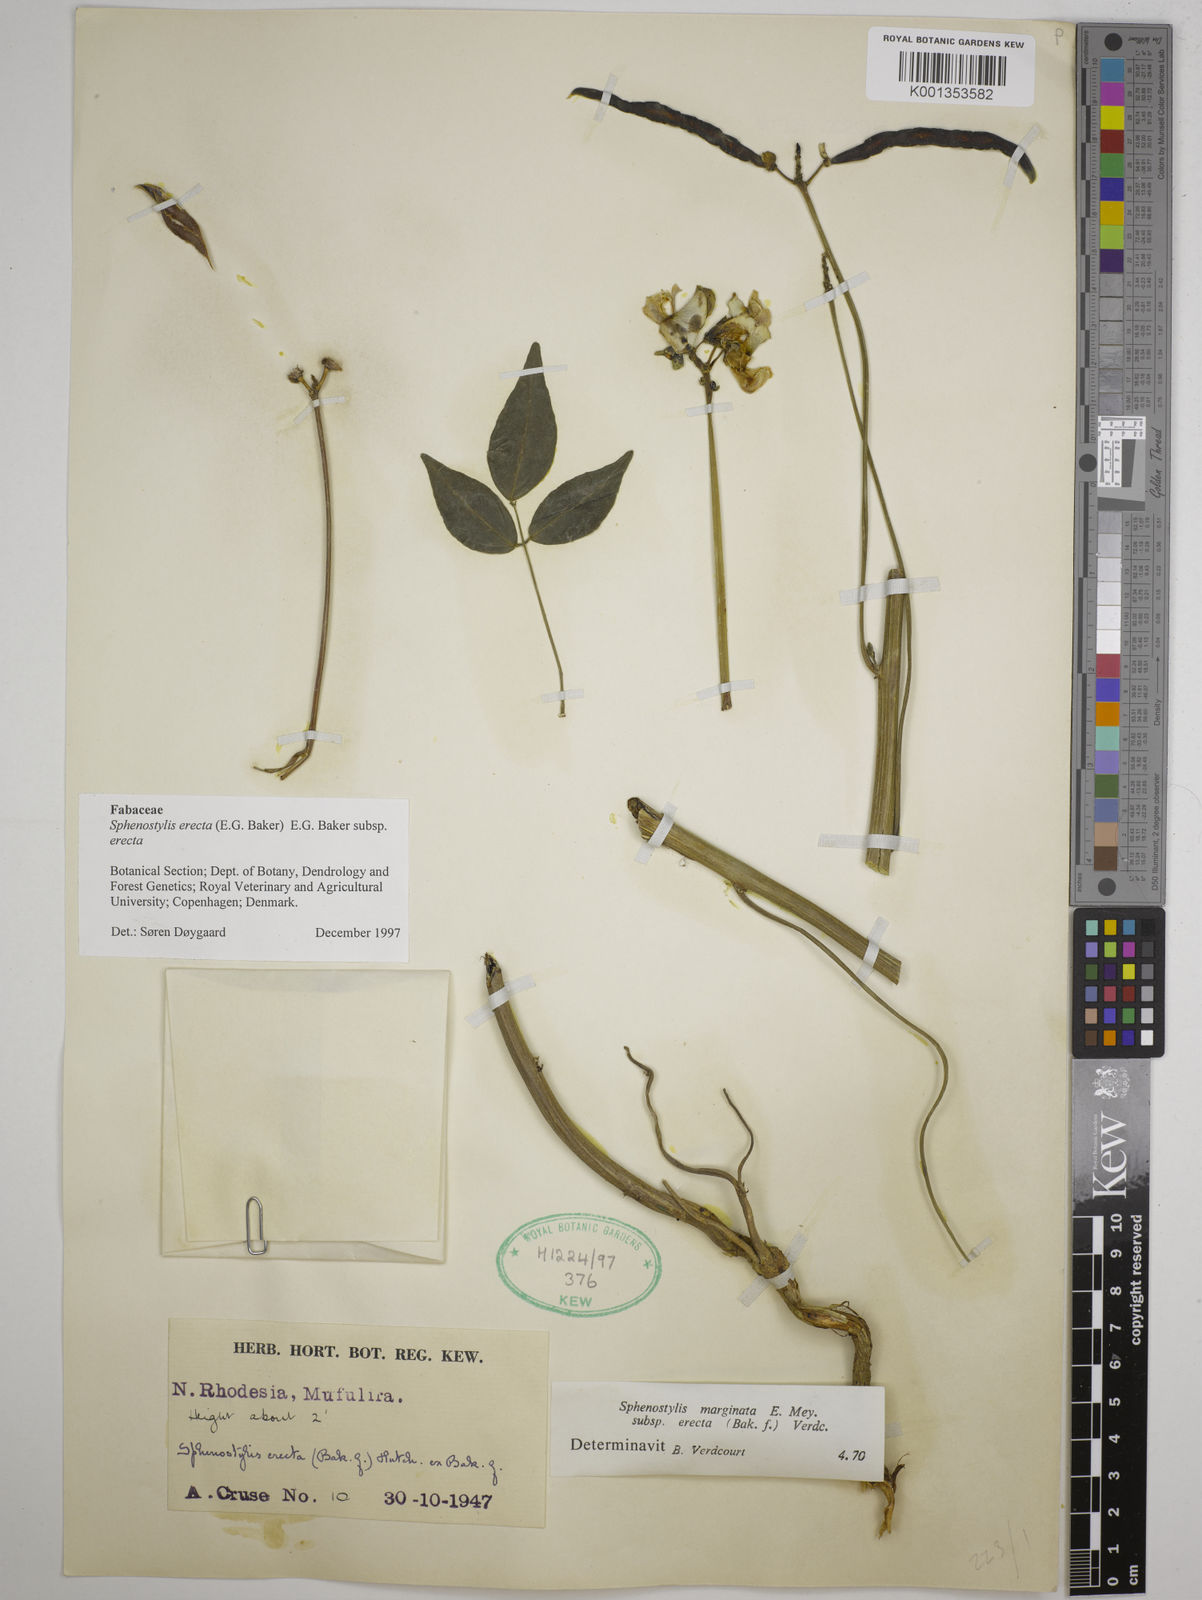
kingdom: Plantae
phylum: Tracheophyta
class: Magnoliopsida
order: Fabales
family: Fabaceae
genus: Sphenostylis
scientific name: Sphenostylis erecta
